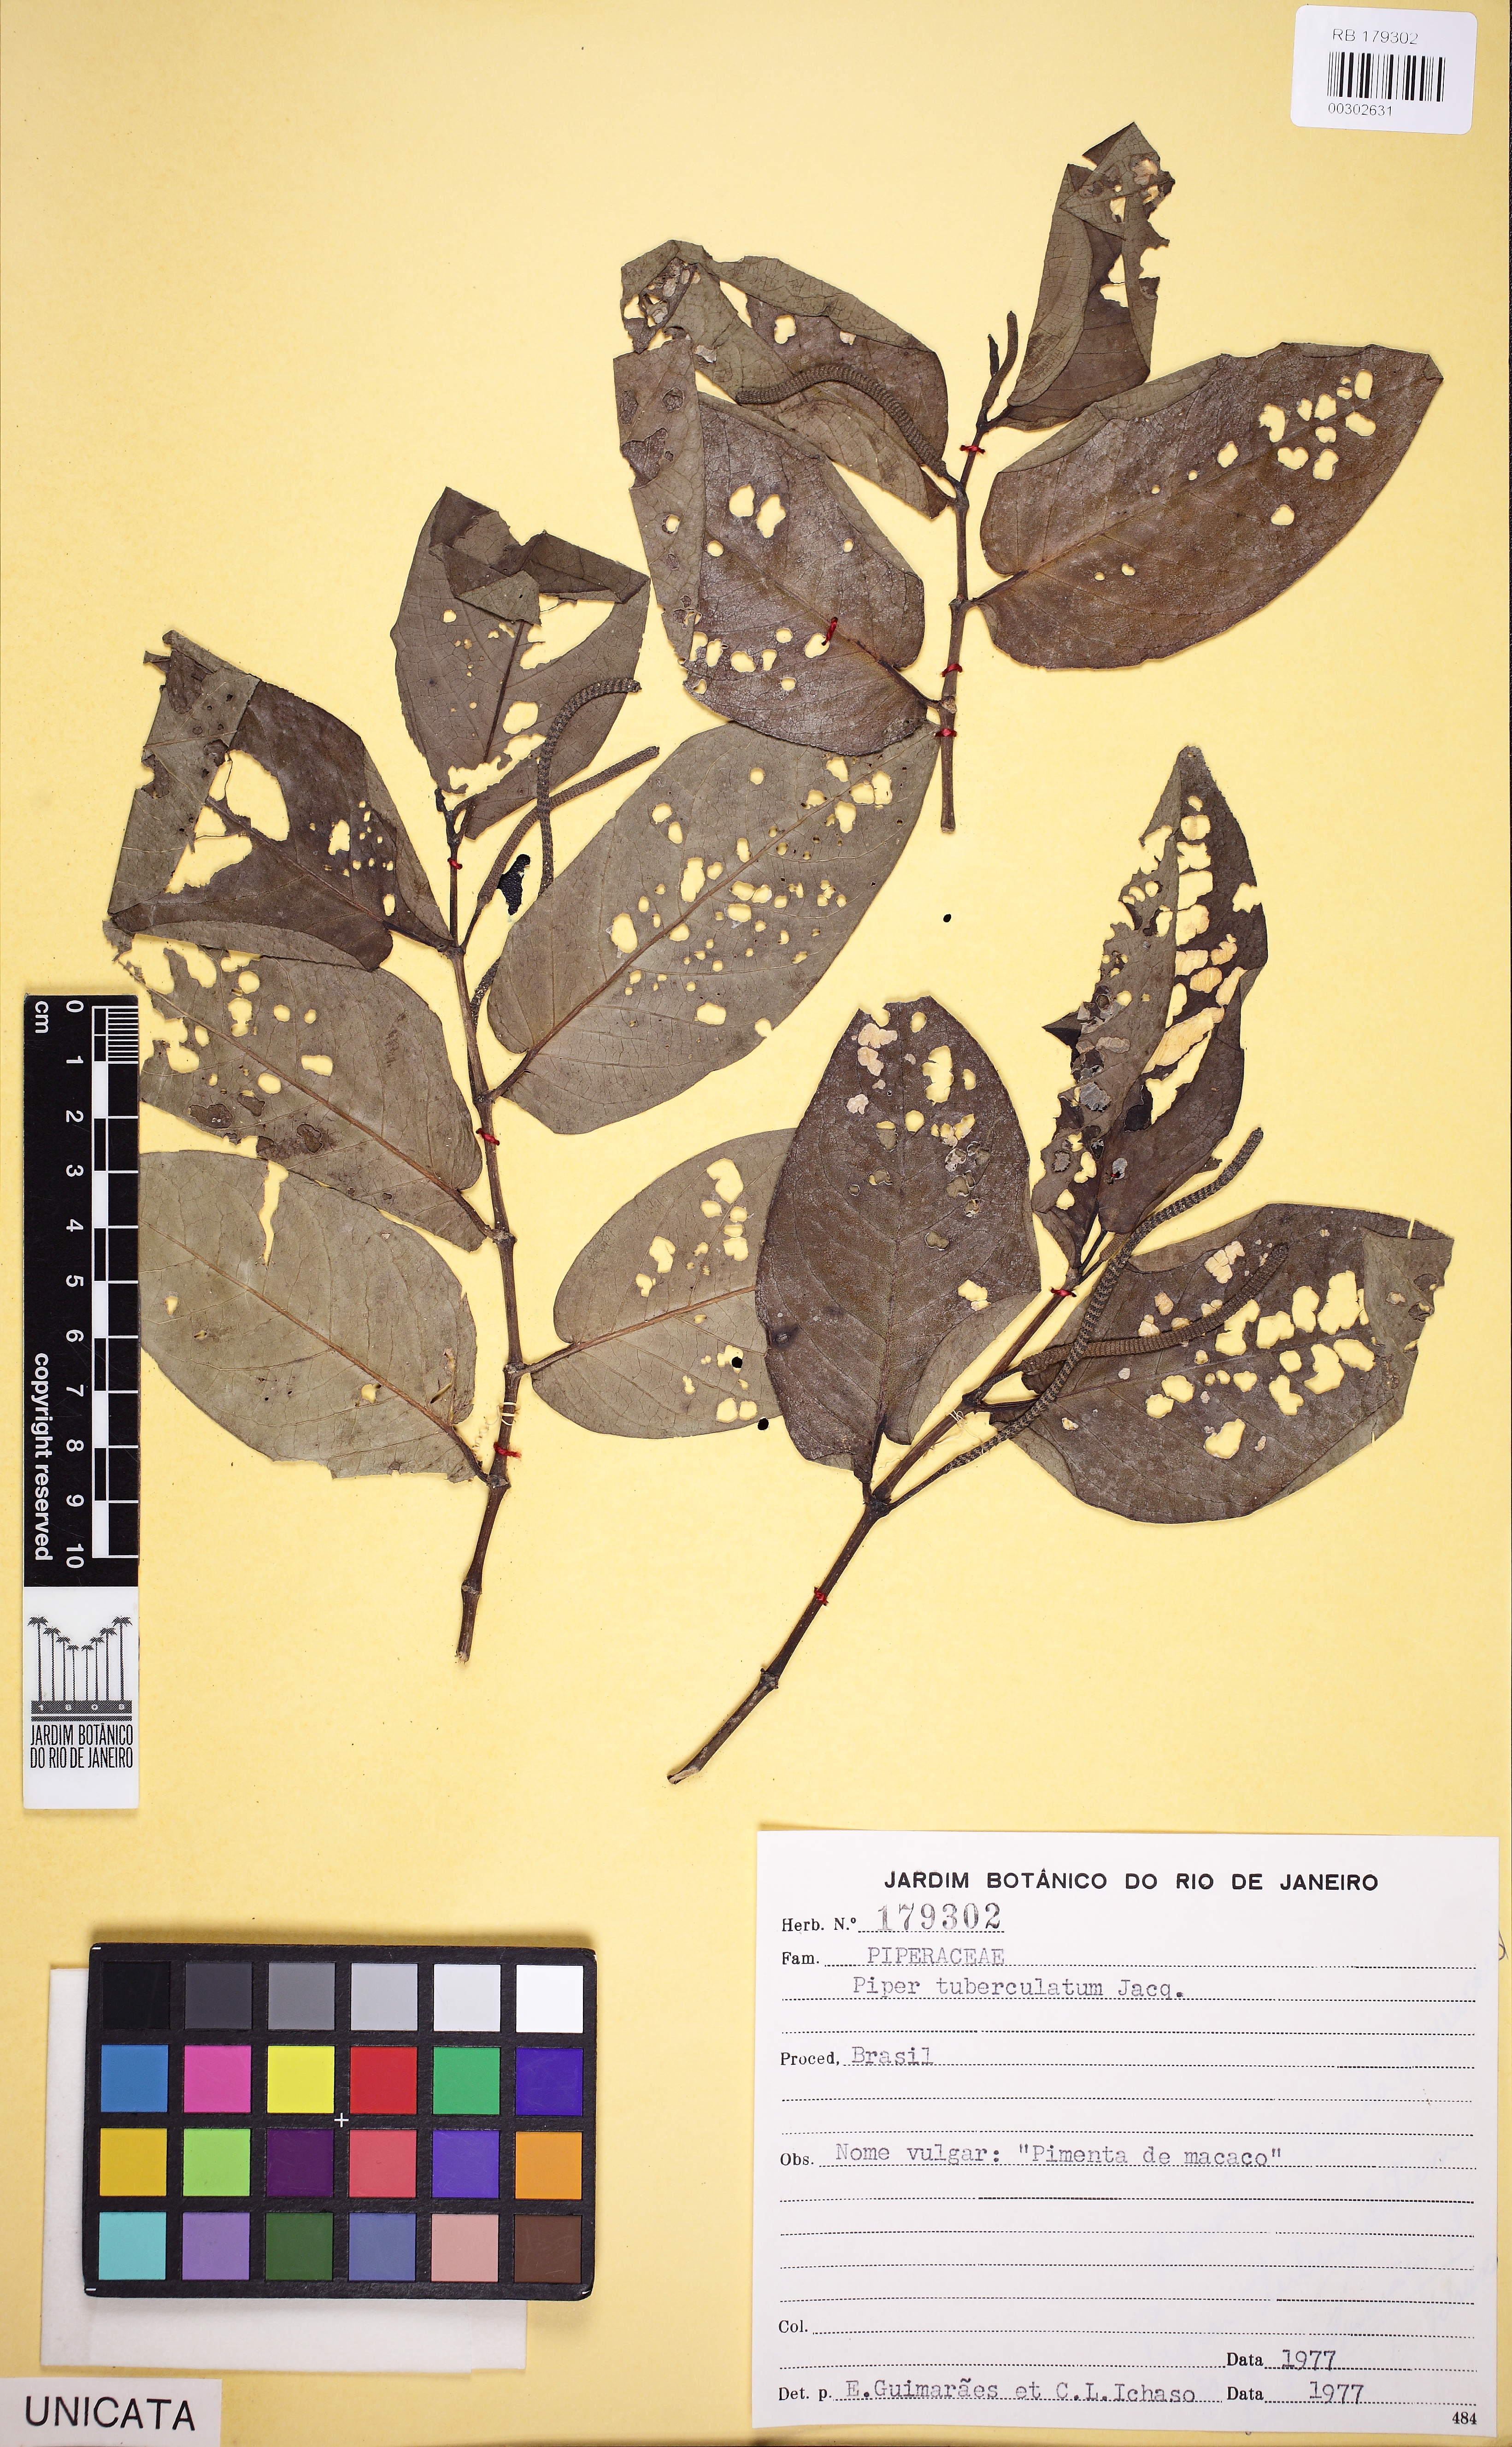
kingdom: Plantae
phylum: Tracheophyta
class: Magnoliopsida
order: Piperales
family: Piperaceae
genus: Piper
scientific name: Piper tuberculatum
